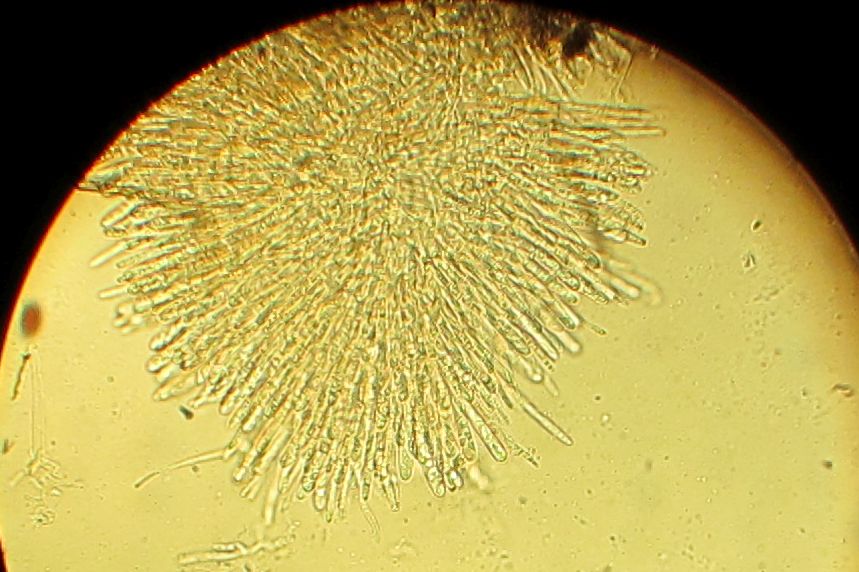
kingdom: Fungi
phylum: Ascomycota
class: Leotiomycetes
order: Helotiales
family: Lachnaceae
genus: Neodasyscypha
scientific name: Neodasyscypha cerina
